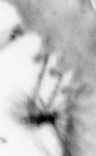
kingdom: Animalia
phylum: Annelida
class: Polychaeta
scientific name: Polychaeta
